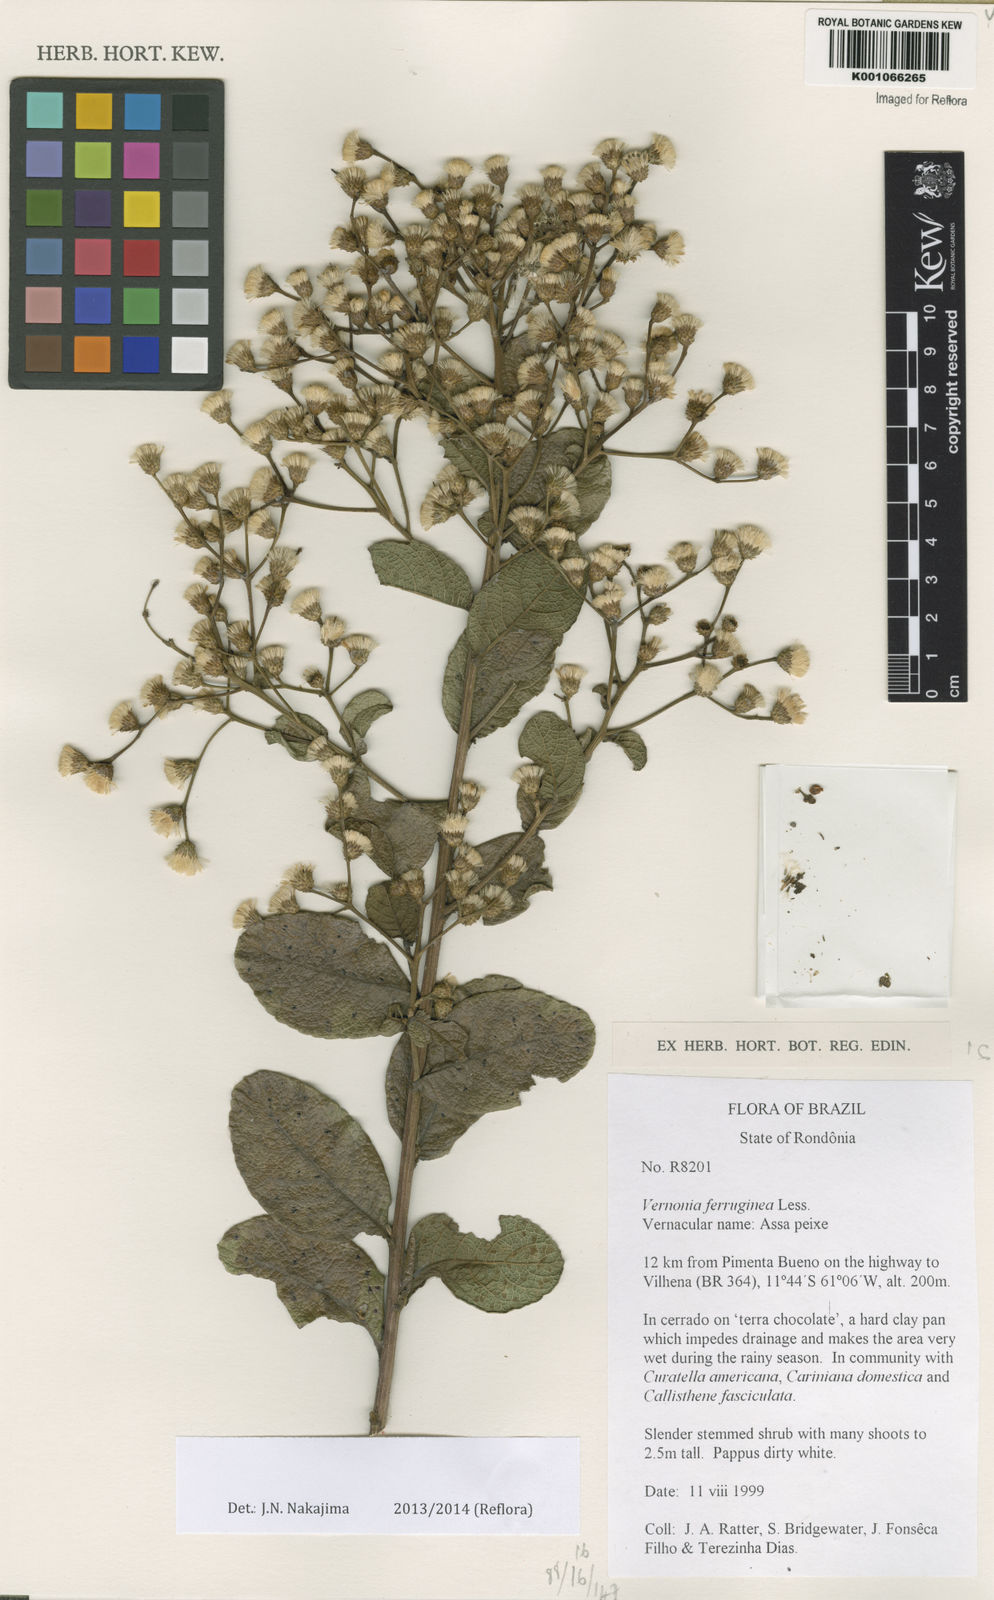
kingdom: Plantae
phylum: Tracheophyta
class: Magnoliopsida
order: Asterales
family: Asteraceae
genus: Vernonanthura
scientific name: Vernonanthura brasiliana
